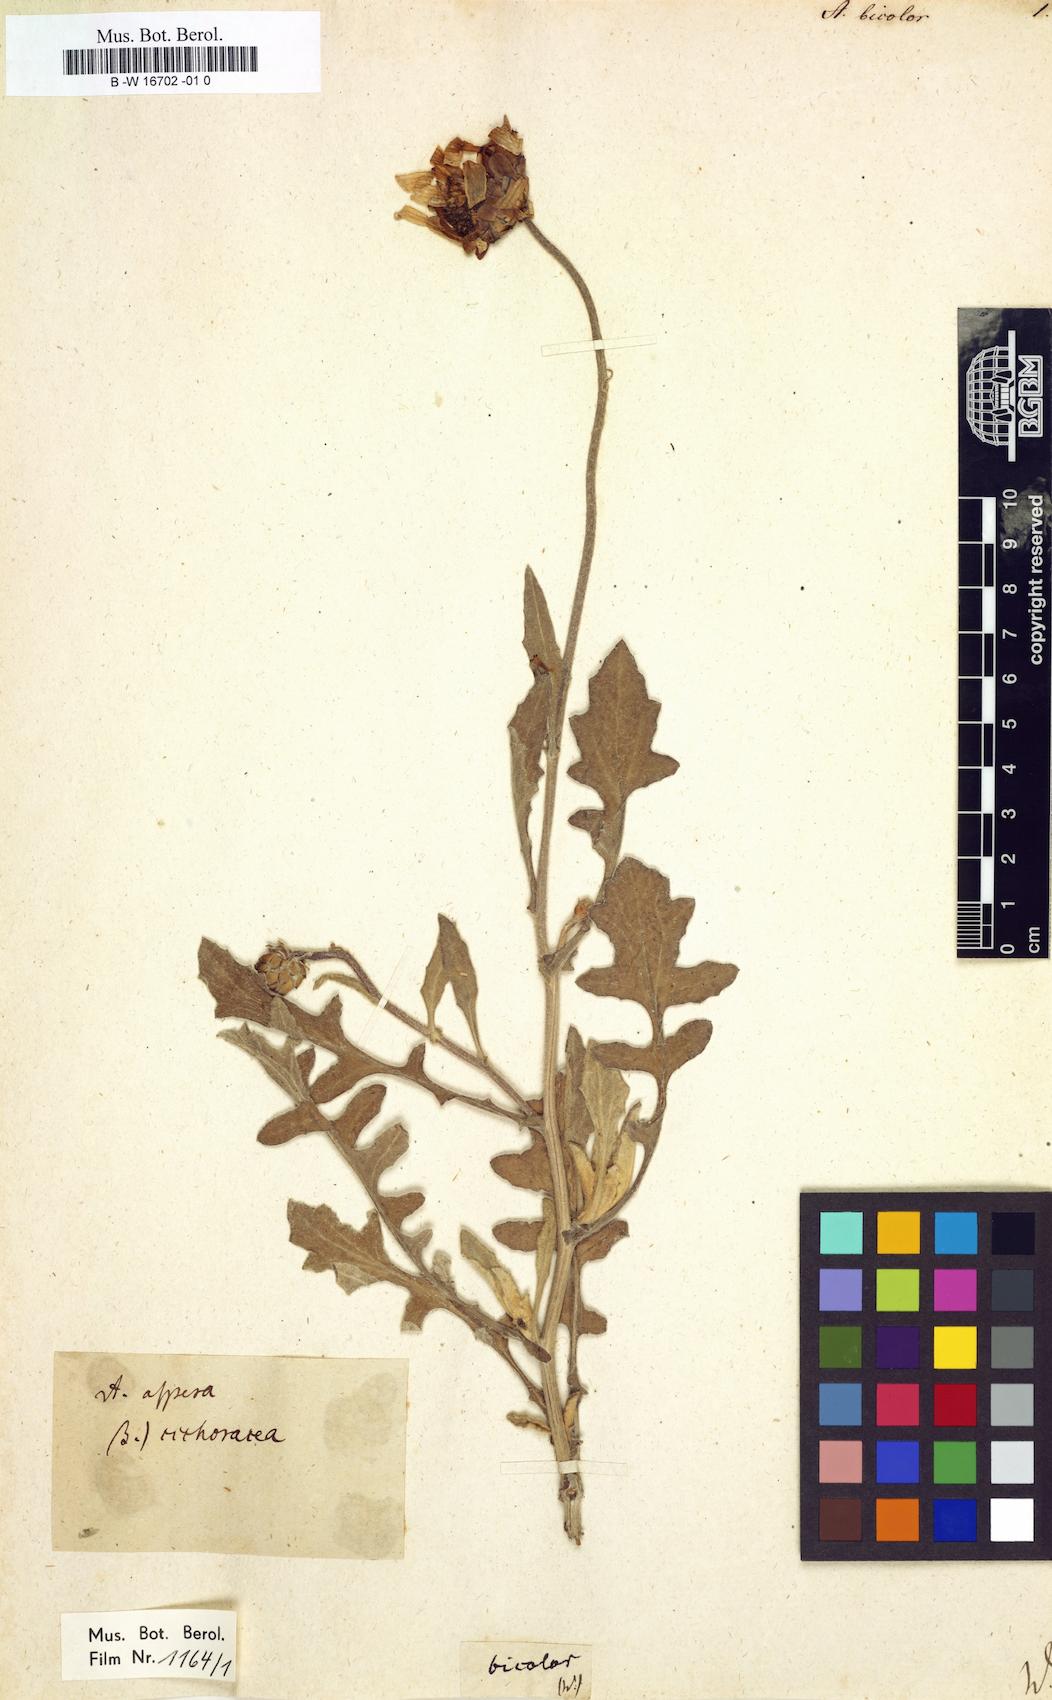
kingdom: Plantae
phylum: Tracheophyta
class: Magnoliopsida
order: Asterales
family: Asteraceae
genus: Arctotis
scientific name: Arctotis aspera
